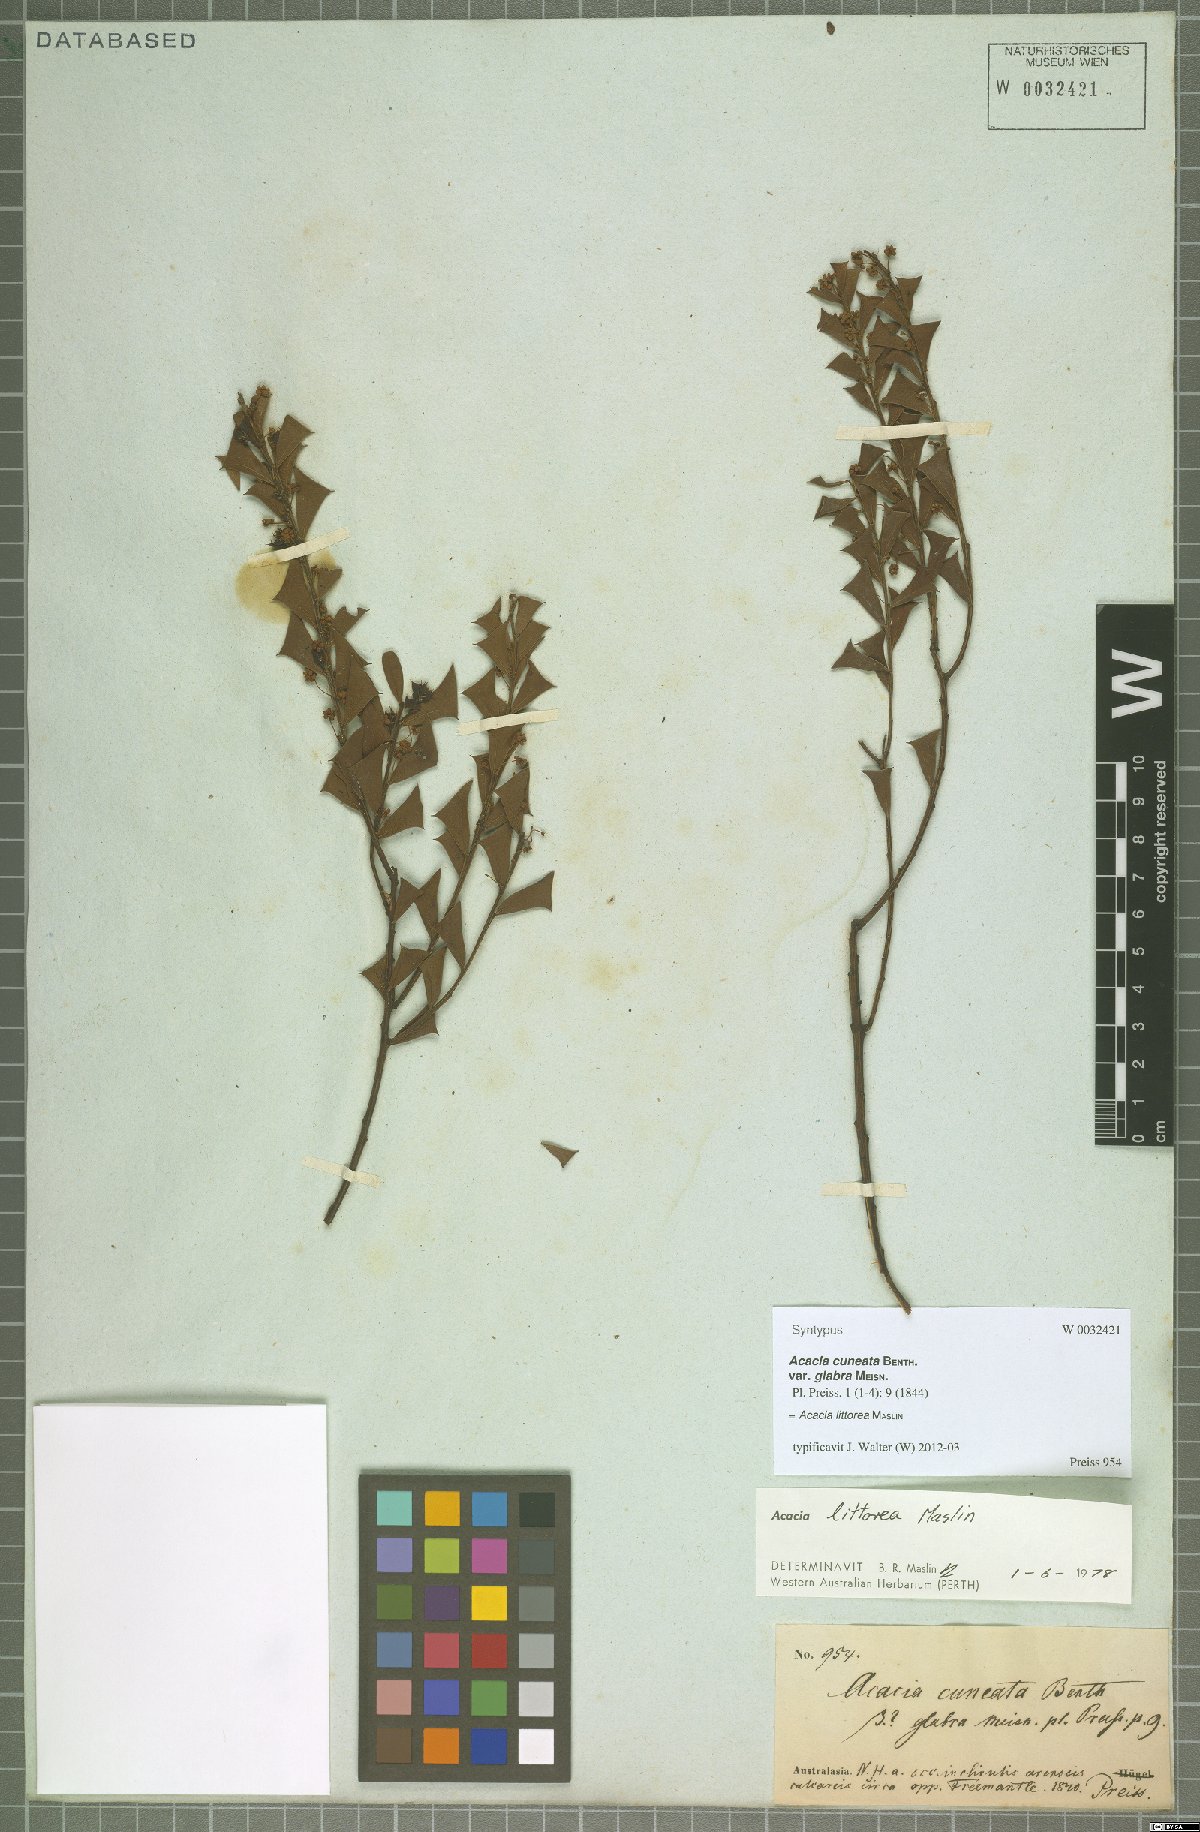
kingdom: Plantae
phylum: Tracheophyta
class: Magnoliopsida
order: Fabales
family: Fabaceae
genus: Acacia
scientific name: Acacia trapezoidea
